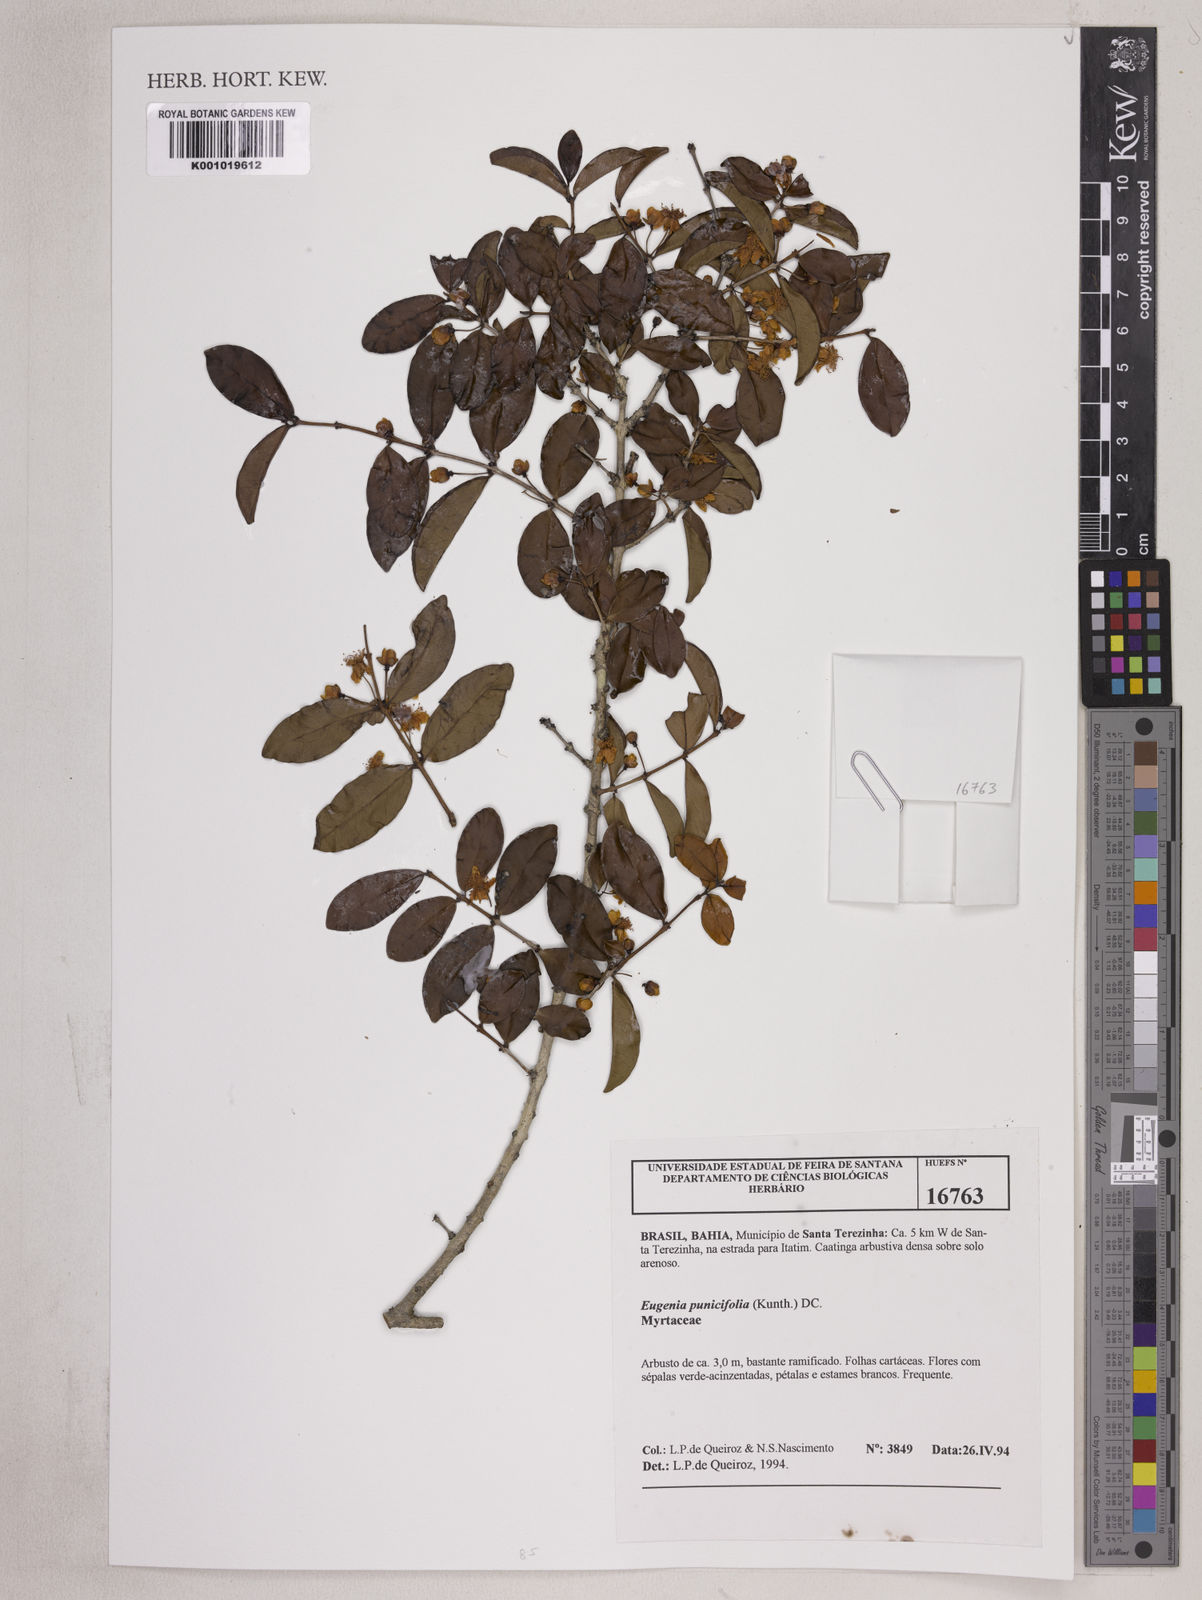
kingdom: Plantae
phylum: Tracheophyta
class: Magnoliopsida
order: Myrtales
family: Myrtaceae
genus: Eugenia
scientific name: Eugenia punicifolia
